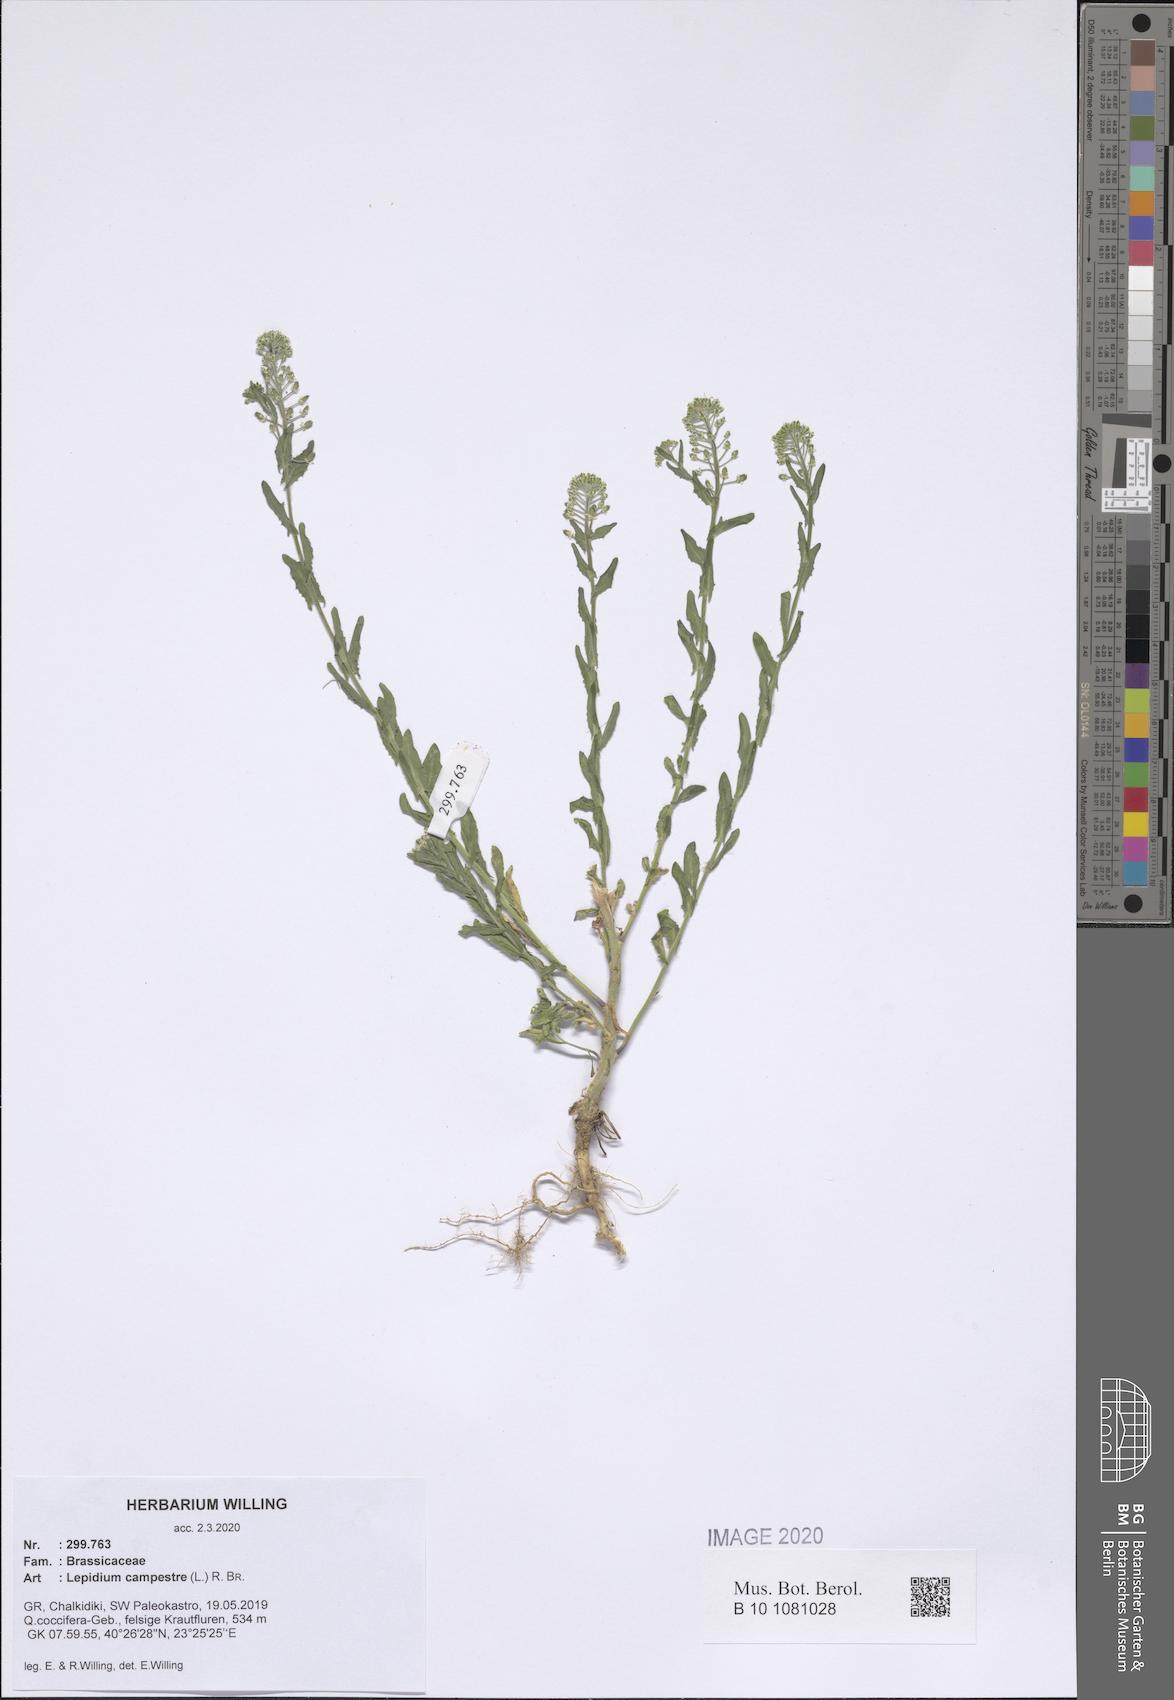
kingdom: Plantae
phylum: Tracheophyta
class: Magnoliopsida
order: Brassicales
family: Brassicaceae
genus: Lepidium
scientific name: Lepidium campestre
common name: Field pepperwort
